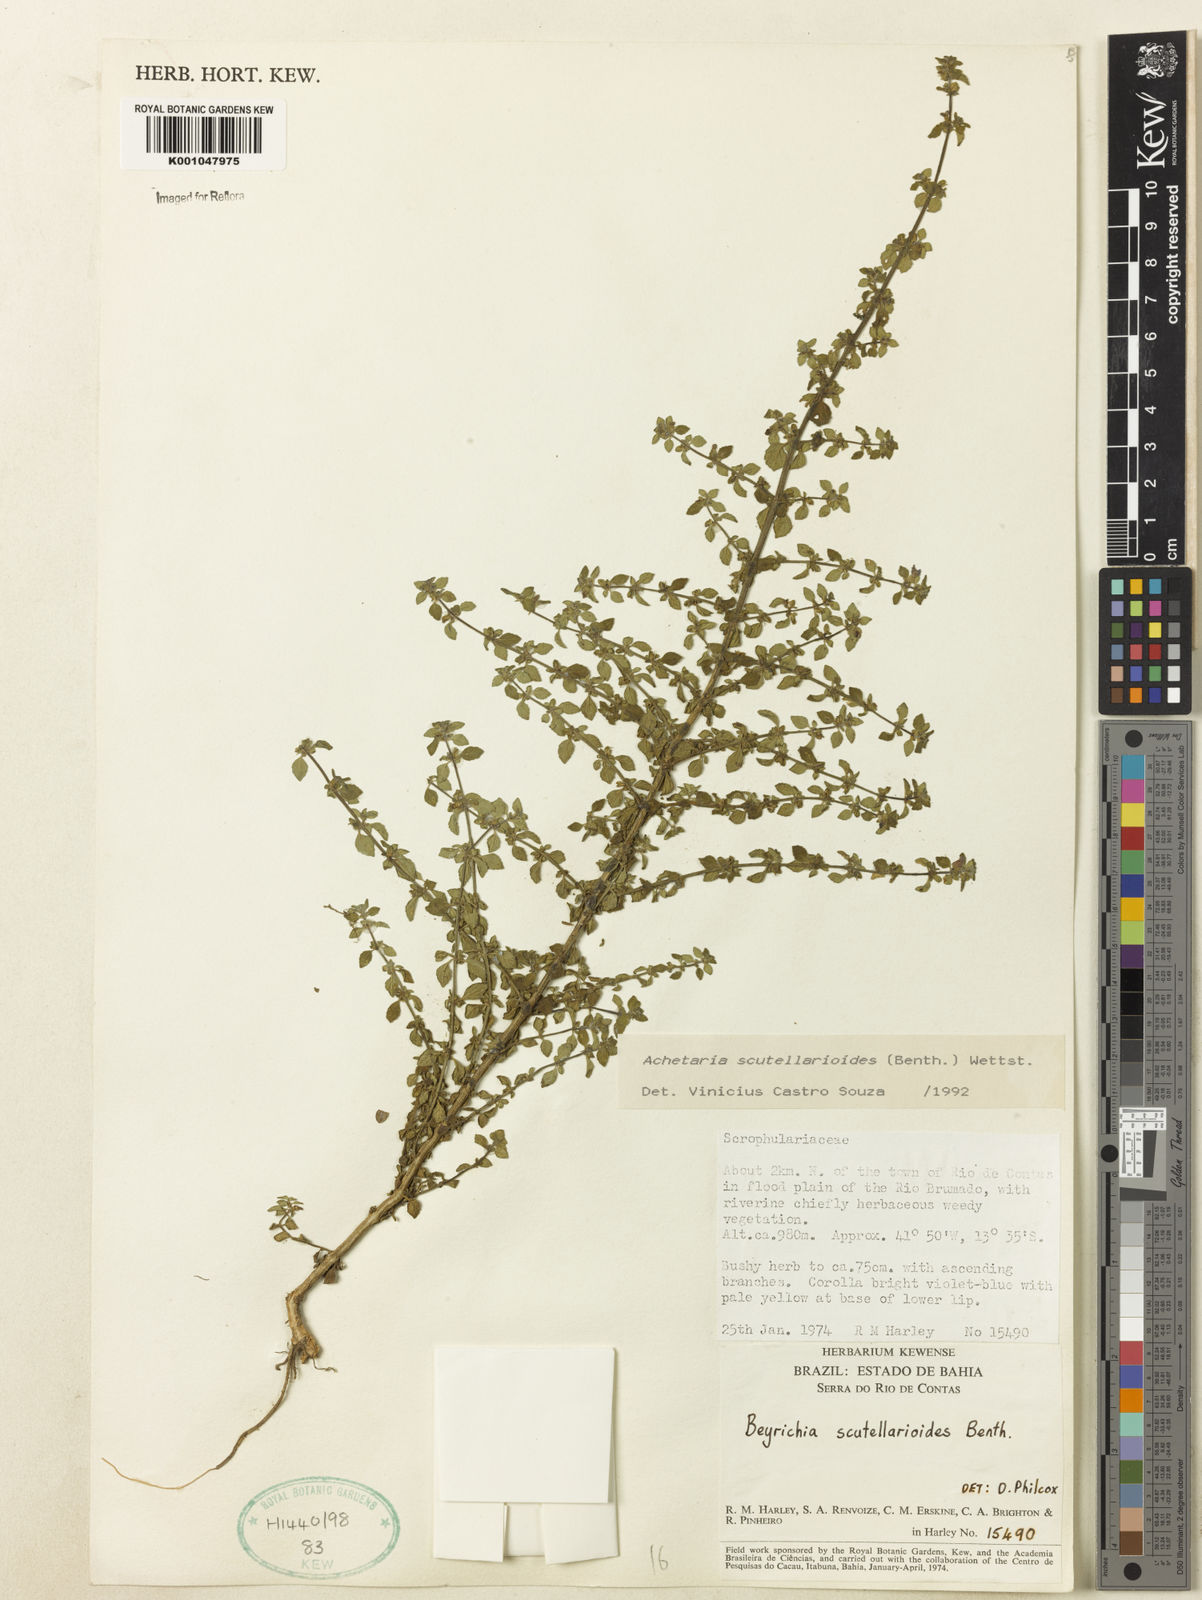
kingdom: Plantae
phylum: Tracheophyta
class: Magnoliopsida
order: Lamiales
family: Plantaginaceae
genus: Matourea
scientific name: Matourea scutellarioides
